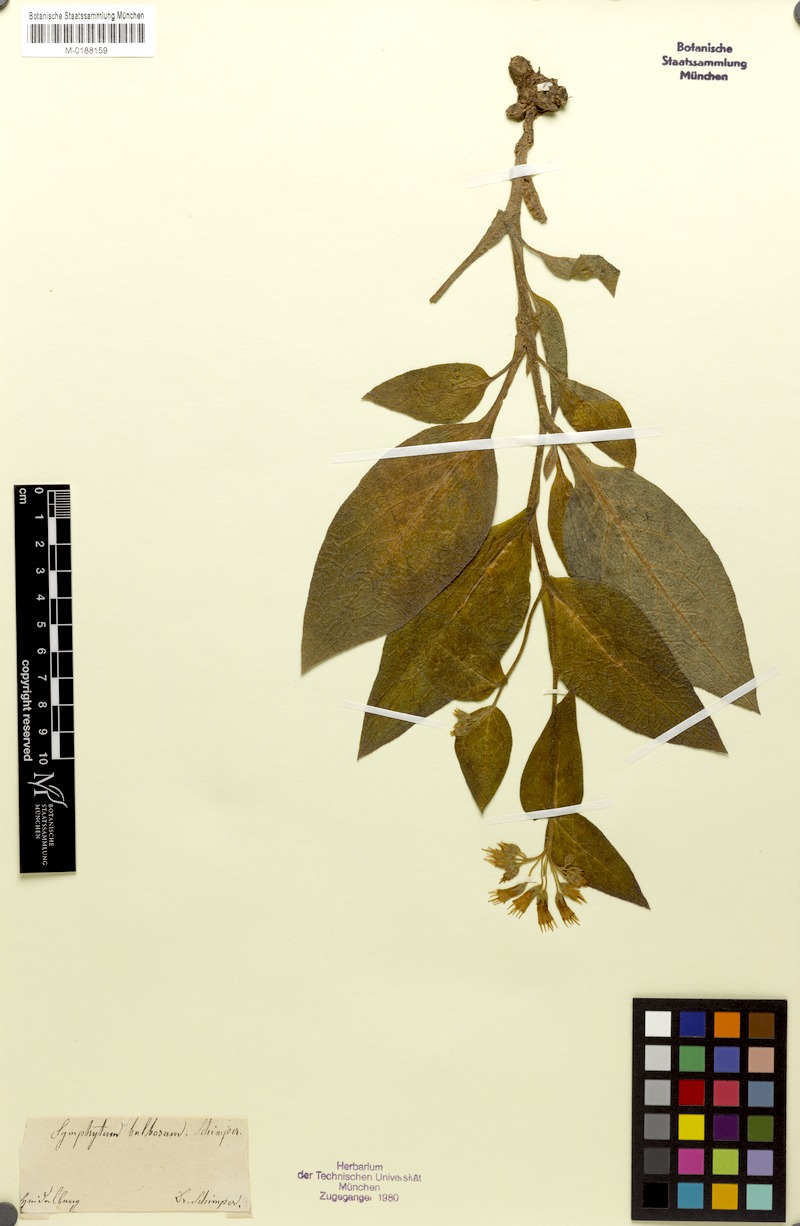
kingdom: Plantae
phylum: Tracheophyta
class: Magnoliopsida
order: Boraginales
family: Boraginaceae
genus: Symphytum
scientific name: Symphytum bulbosum
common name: Bulbous comfrey
